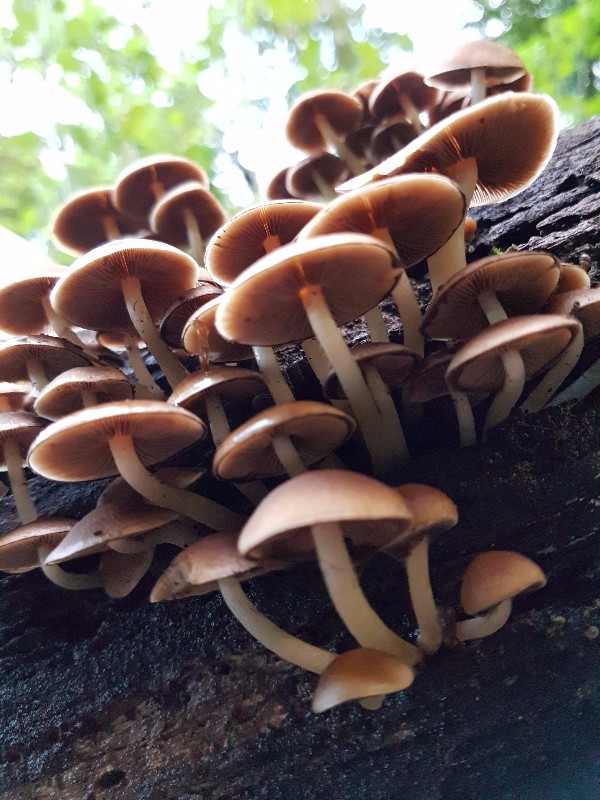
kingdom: Fungi
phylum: Basidiomycota
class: Agaricomycetes
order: Agaricales
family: Psathyrellaceae
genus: Psathyrella
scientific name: Psathyrella piluliformis
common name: lysstokket mørkhat
